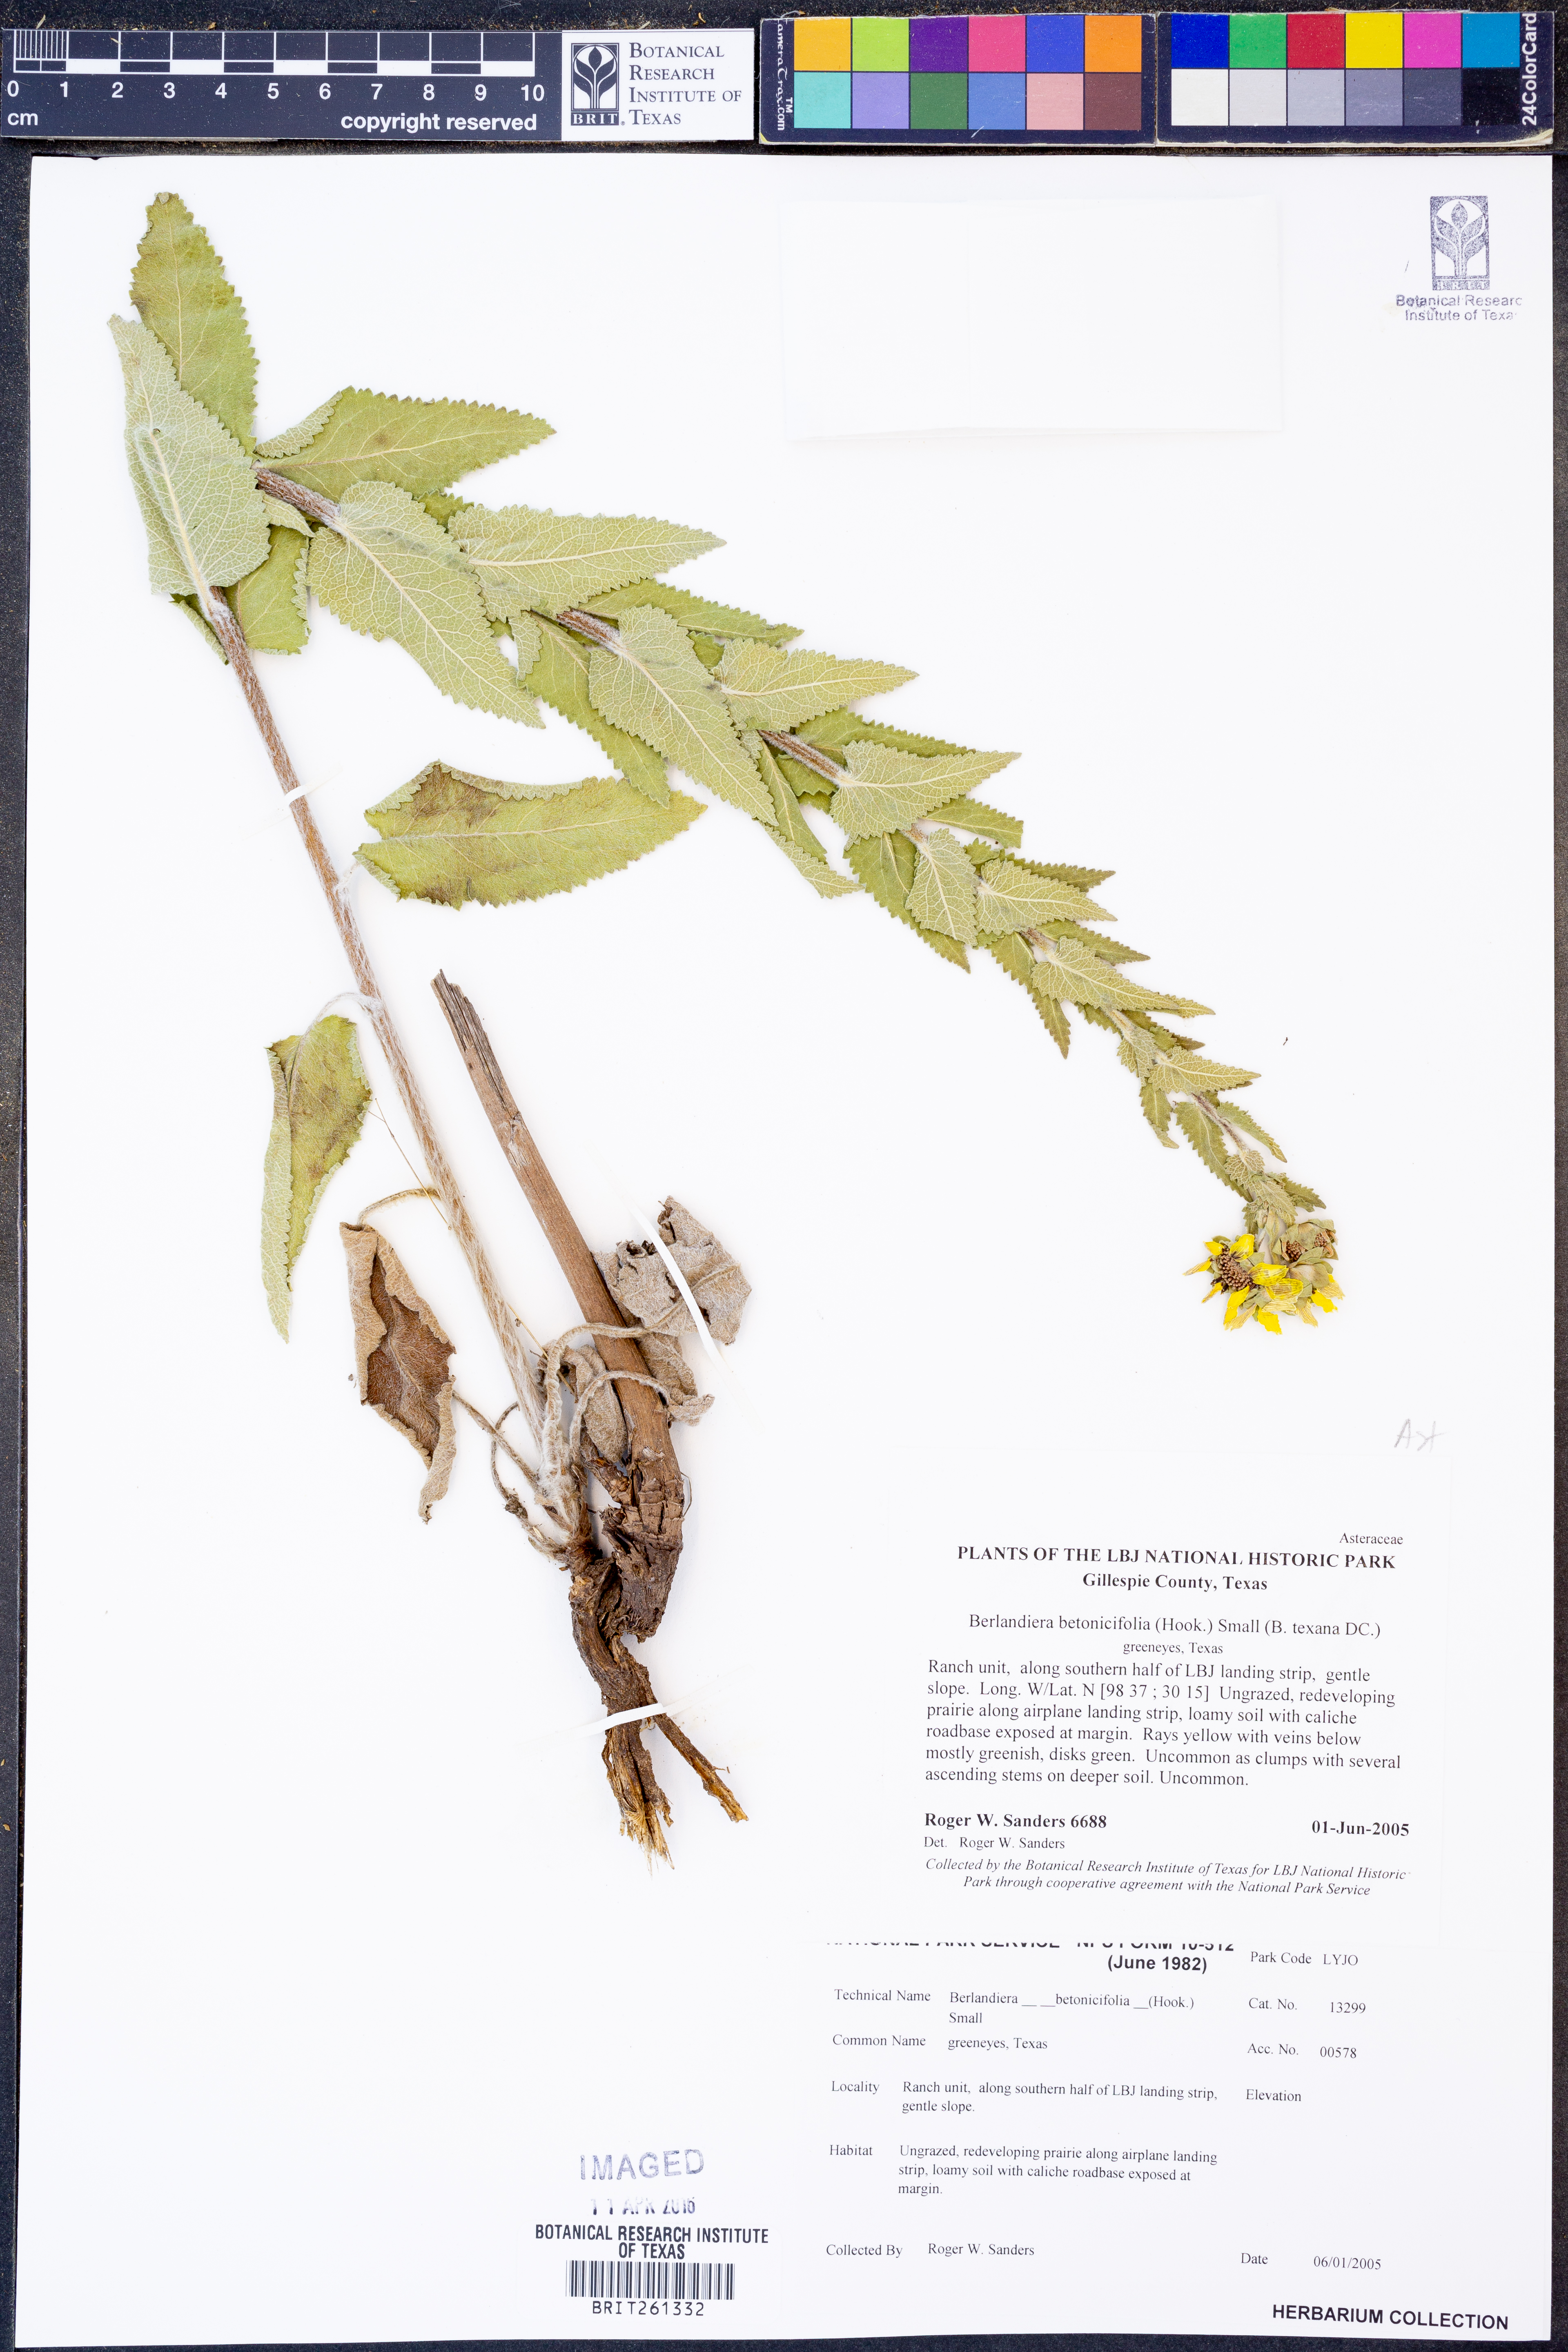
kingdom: Plantae
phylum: Tracheophyta
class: Magnoliopsida
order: Asterales
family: Asteraceae
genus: Berlandiera
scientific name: Berlandiera betonicifolia
